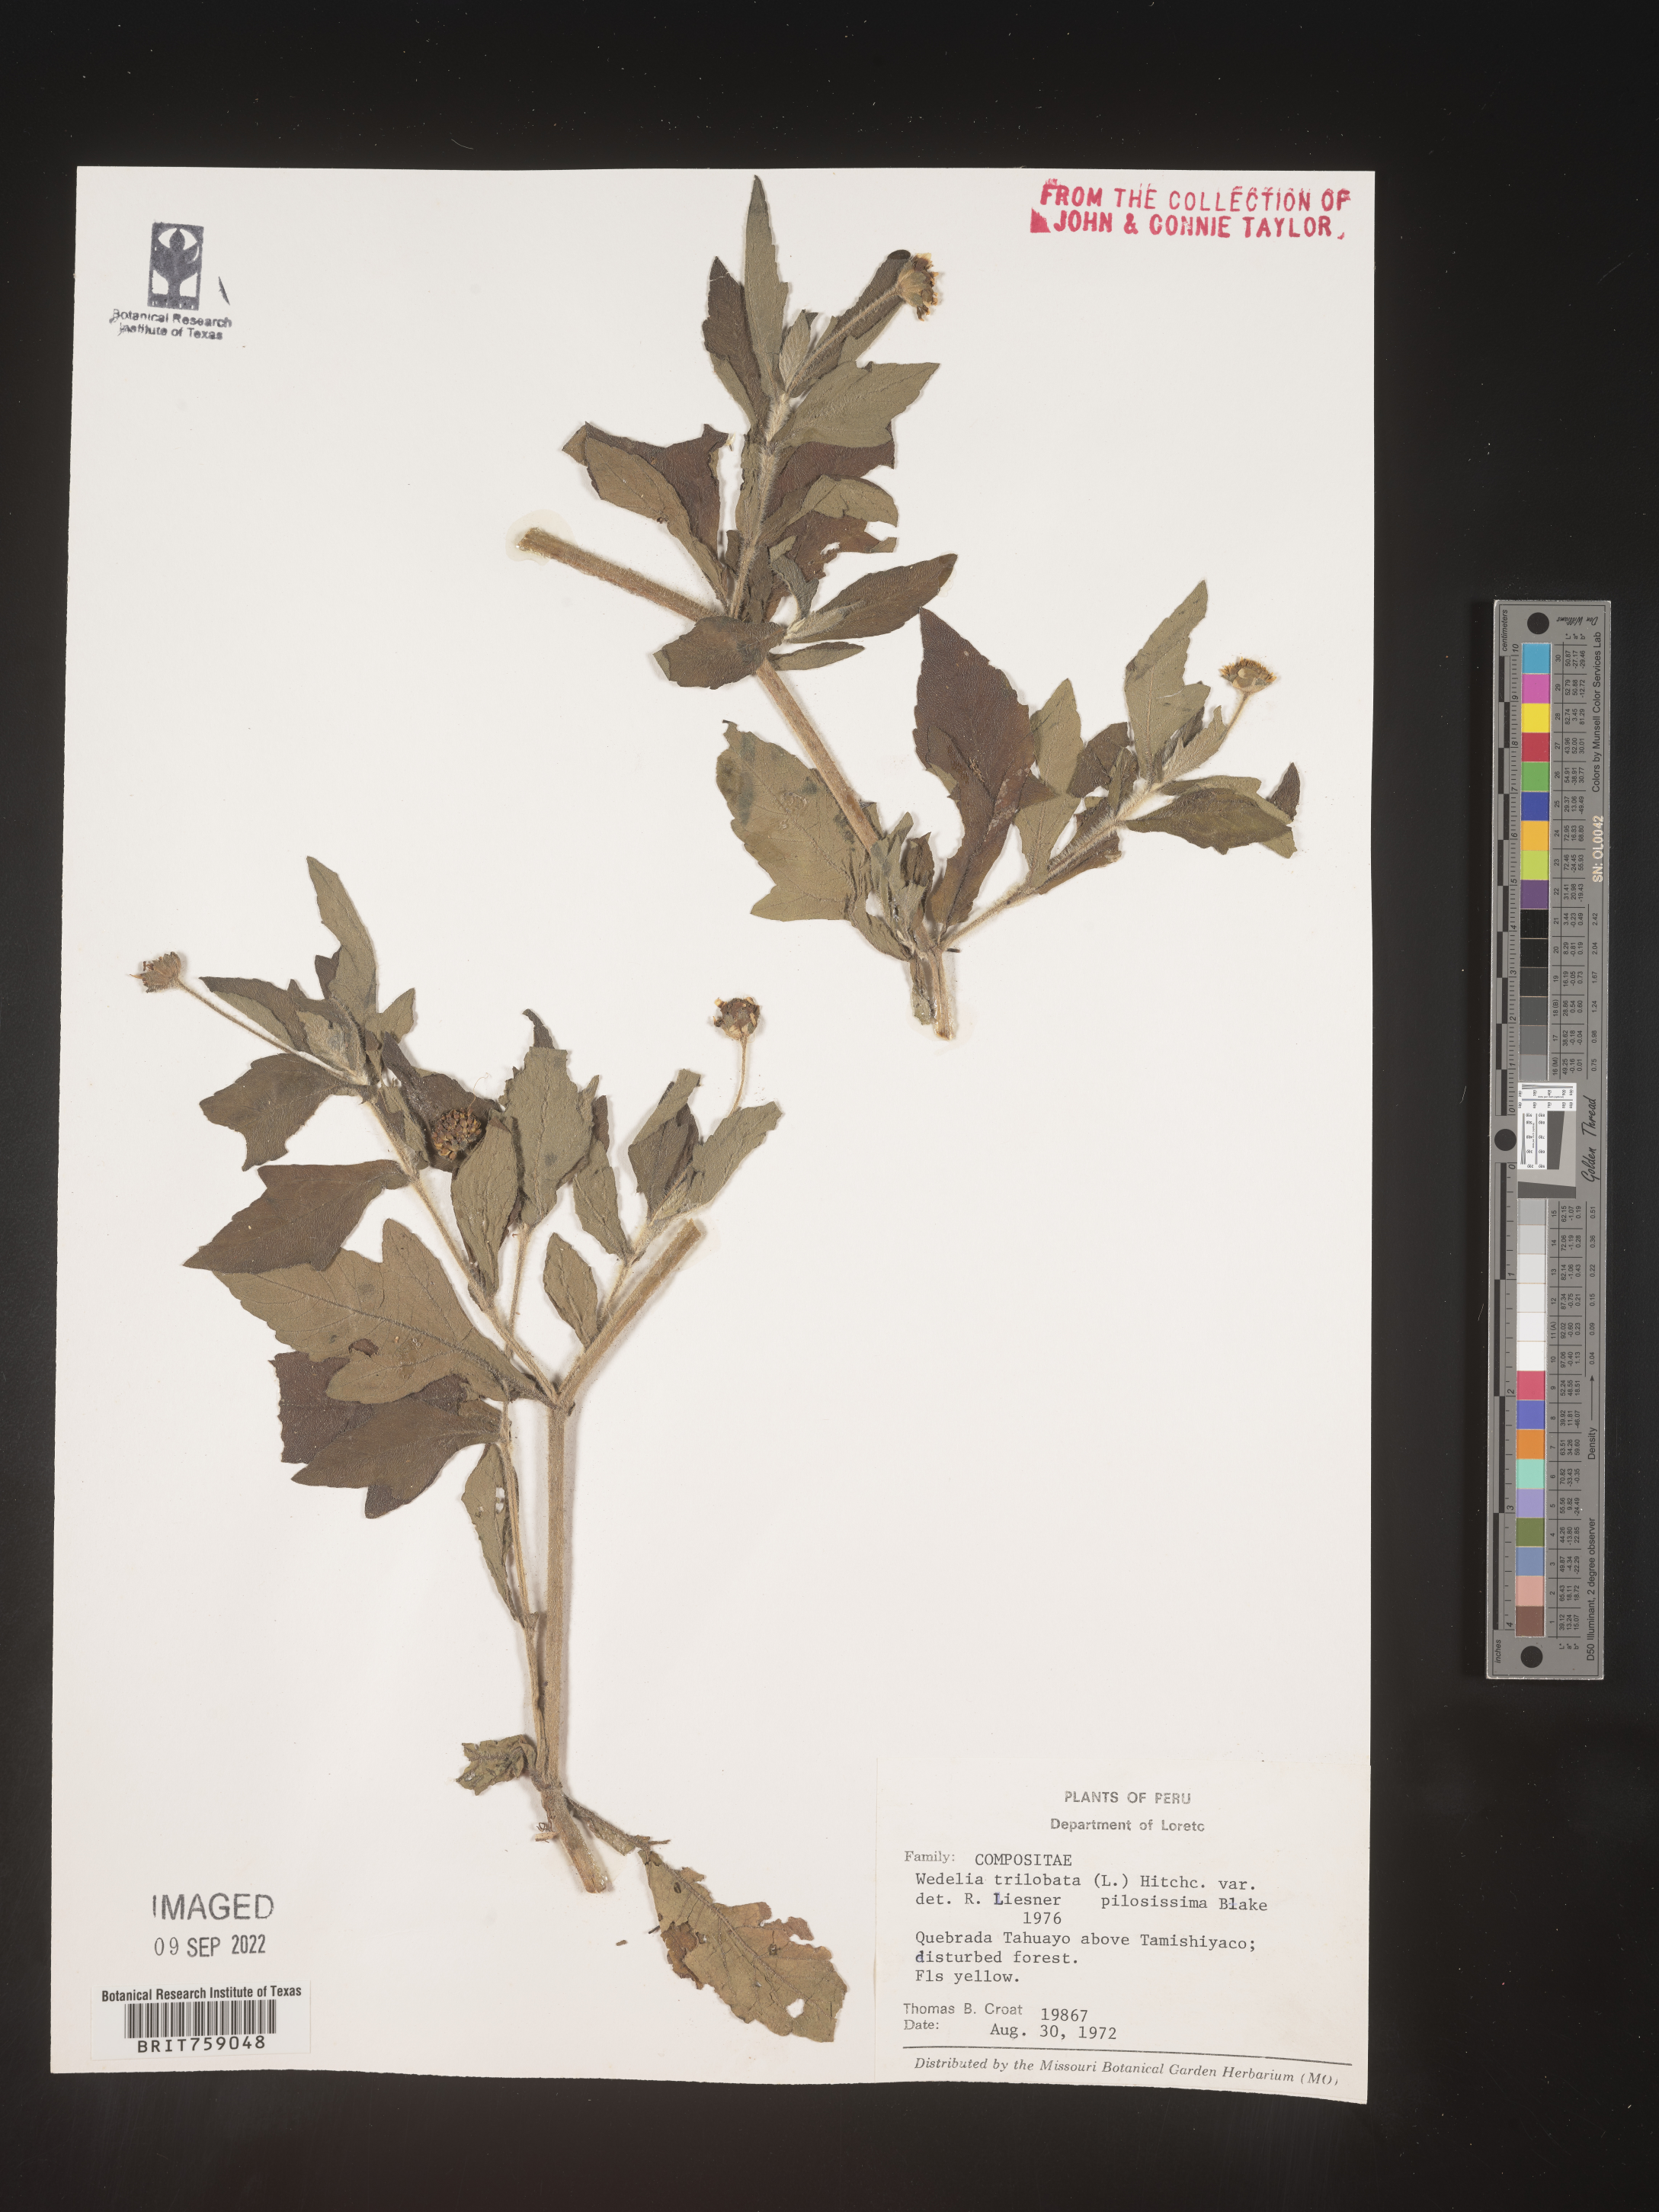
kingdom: Plantae
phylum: Tracheophyta
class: Magnoliopsida
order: Asterales
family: Asteraceae
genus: Wedelia
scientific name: Wedelia
